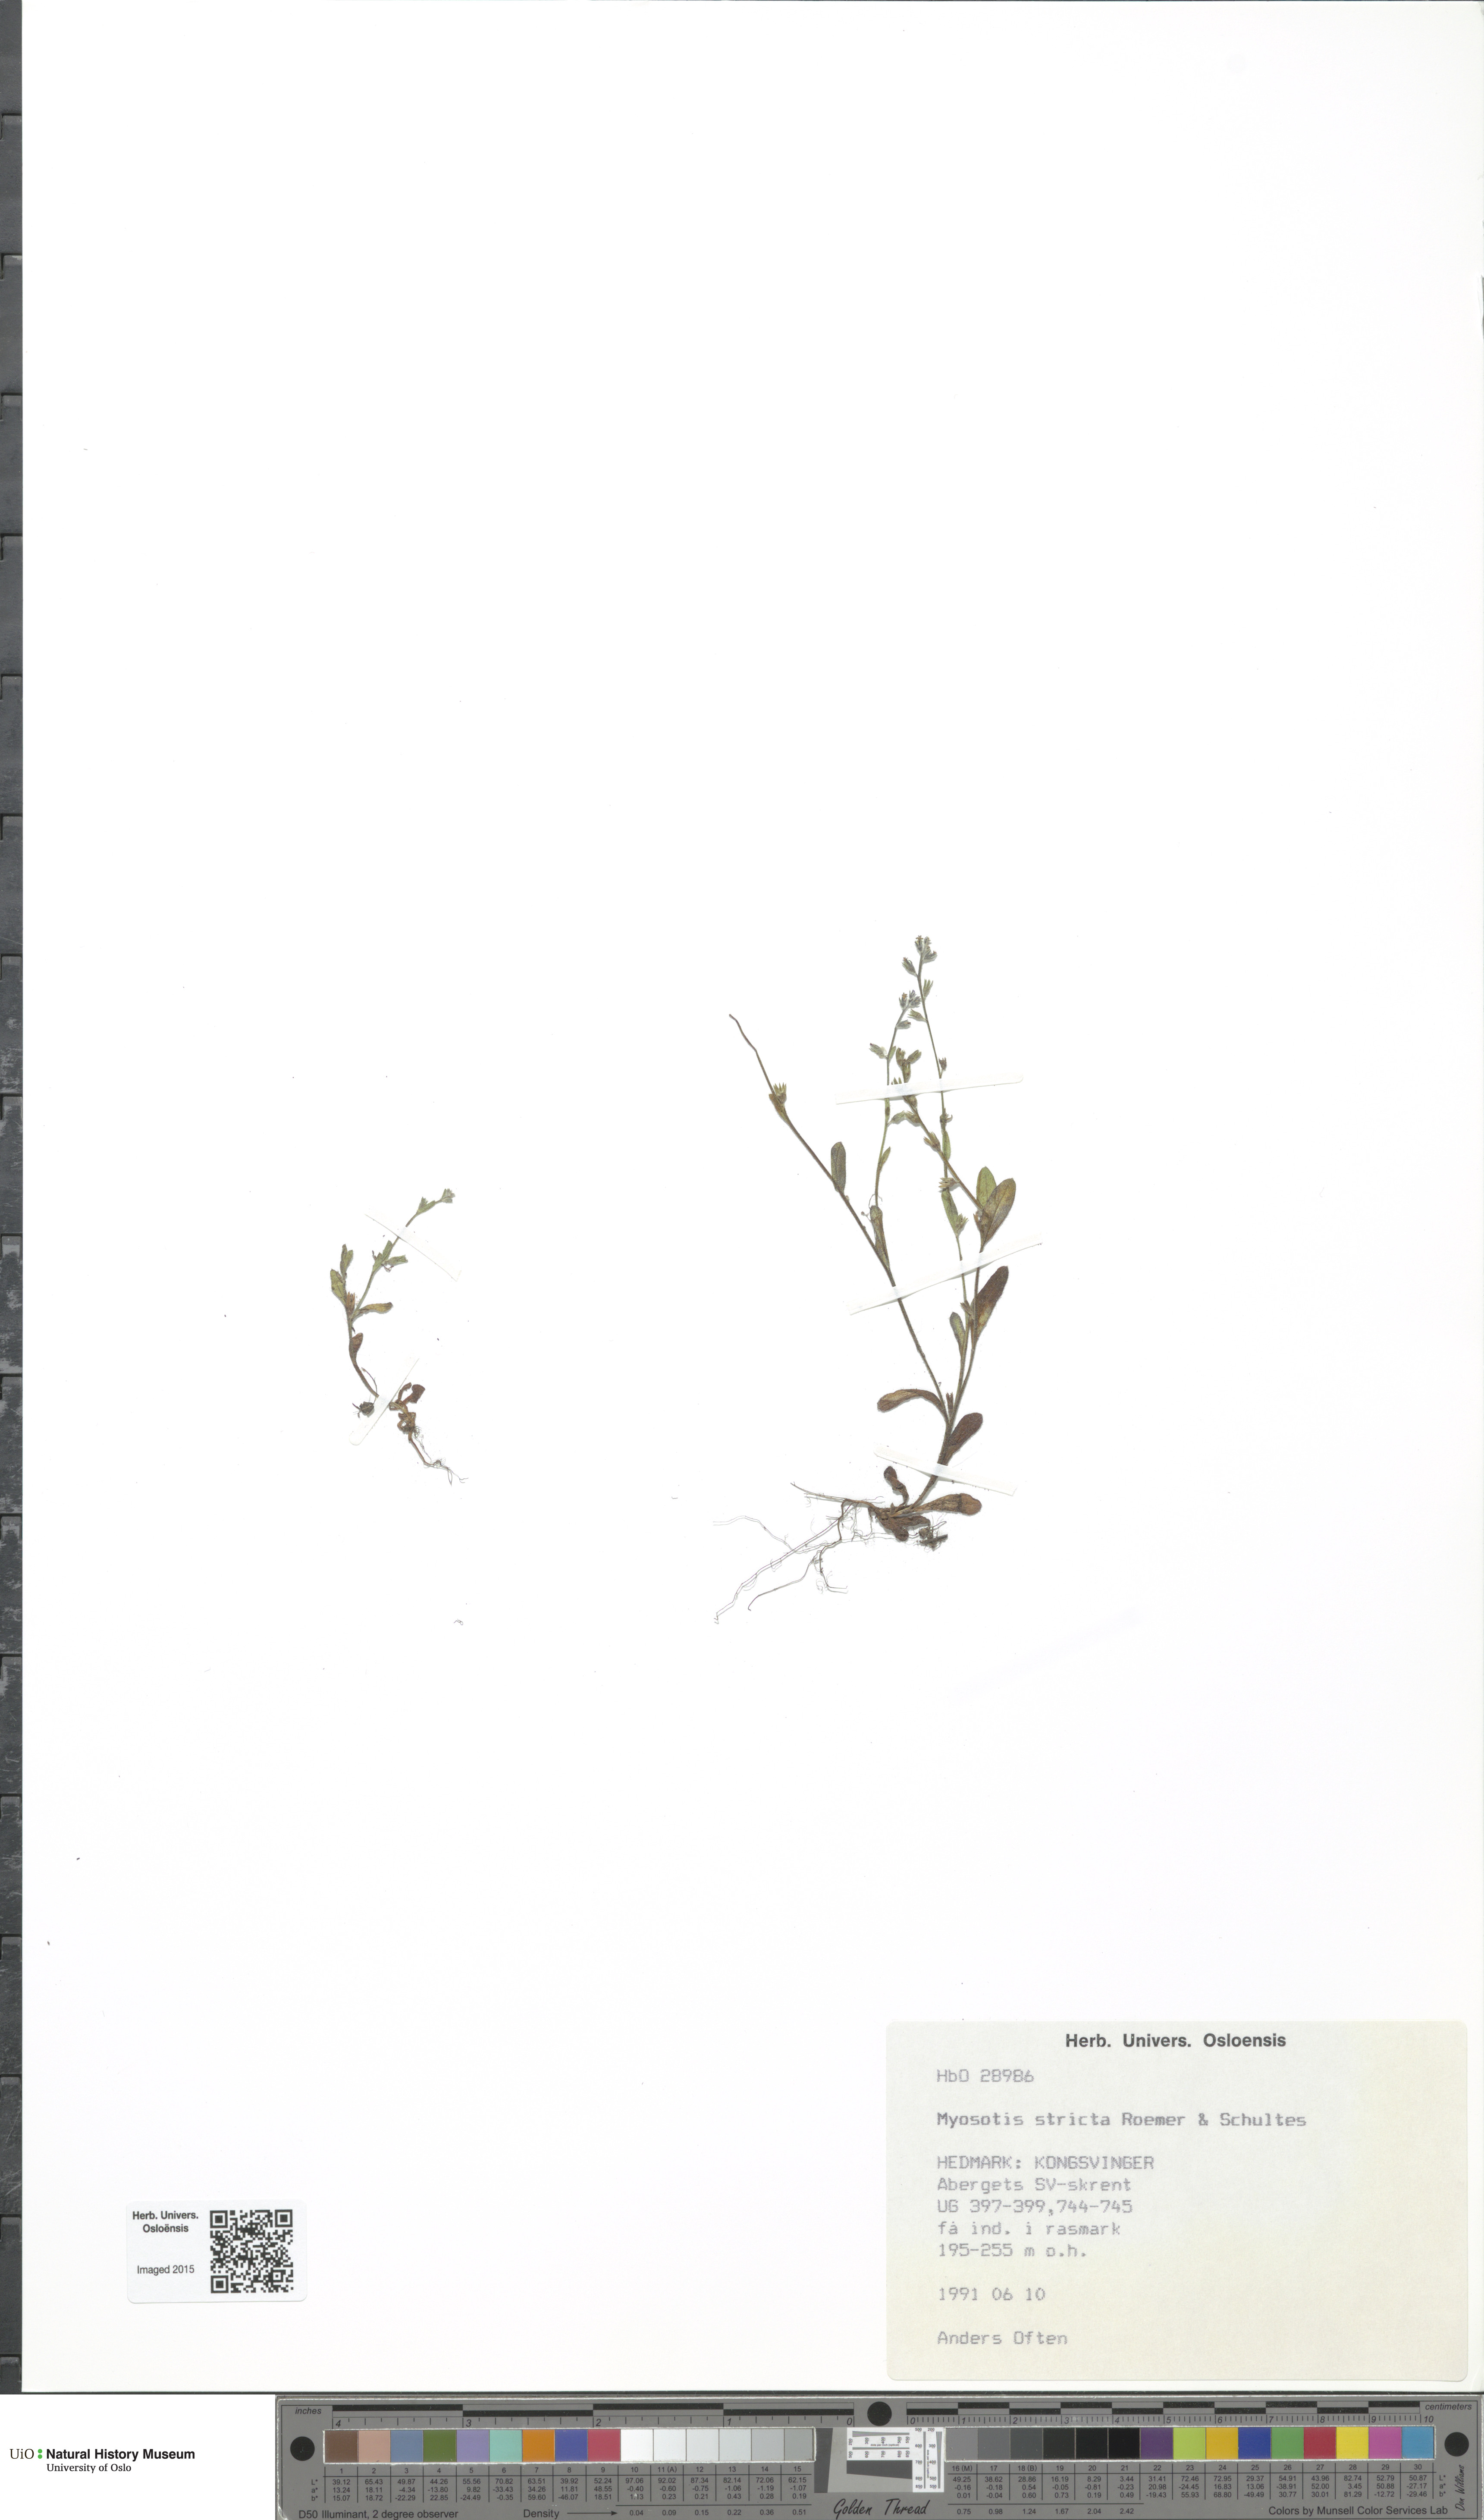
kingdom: Plantae
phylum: Tracheophyta
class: Magnoliopsida
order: Boraginales
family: Boraginaceae
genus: Myosotis
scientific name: Myosotis stricta
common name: Strict forget-me-not
